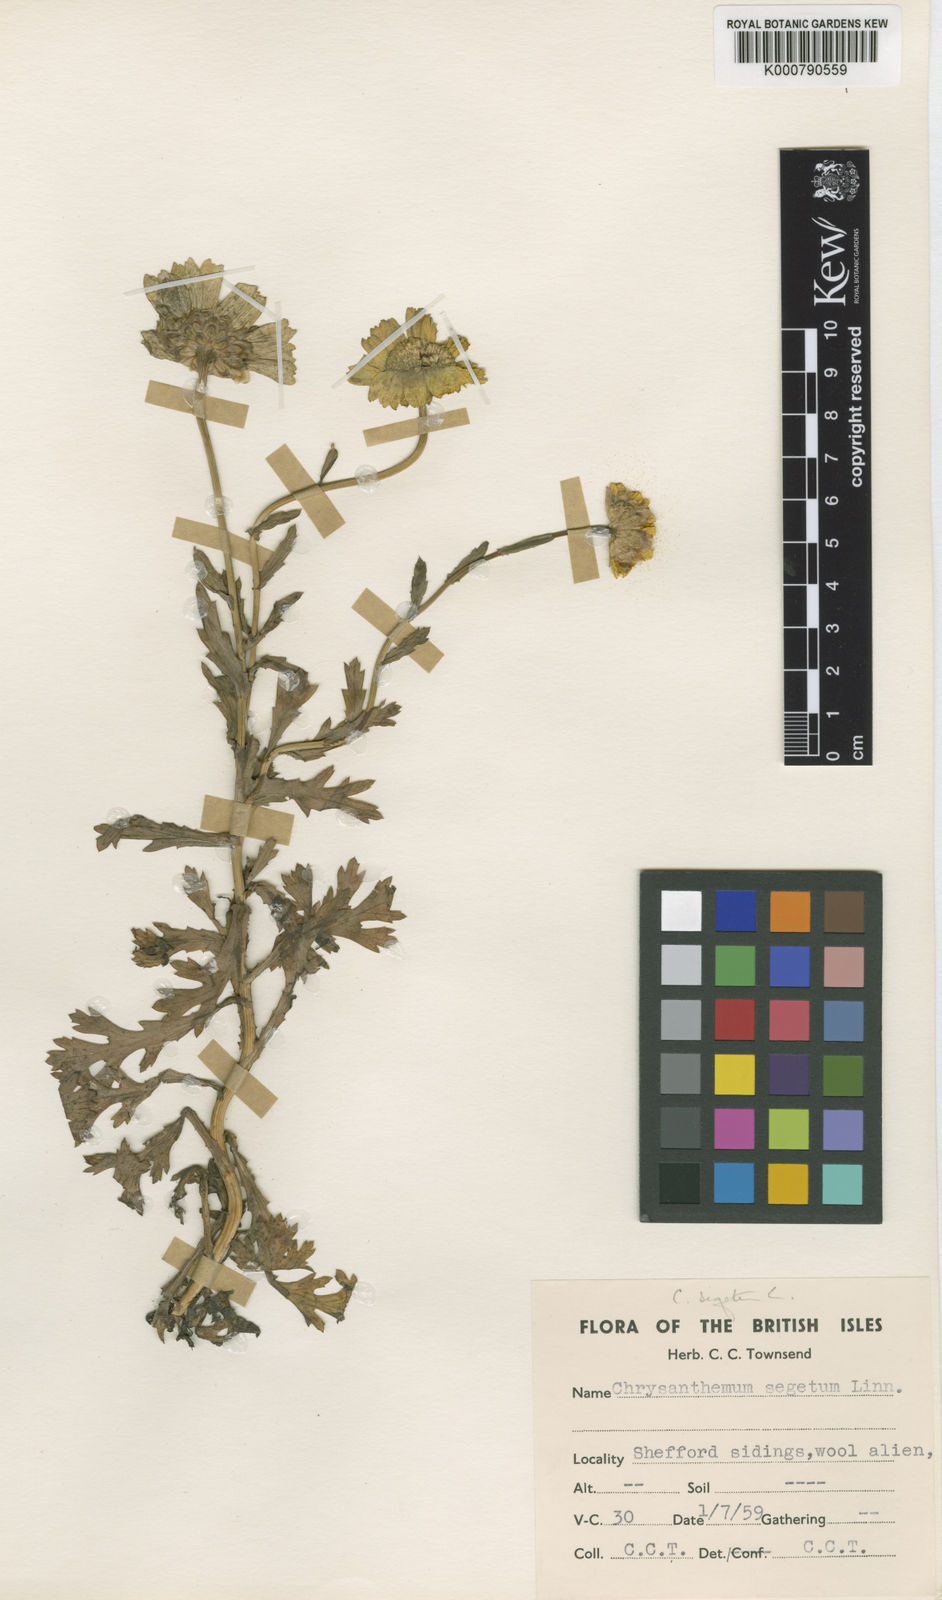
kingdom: Plantae
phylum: Tracheophyta
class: Magnoliopsida
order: Asterales
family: Asteraceae
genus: Glebionis
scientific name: Glebionis
